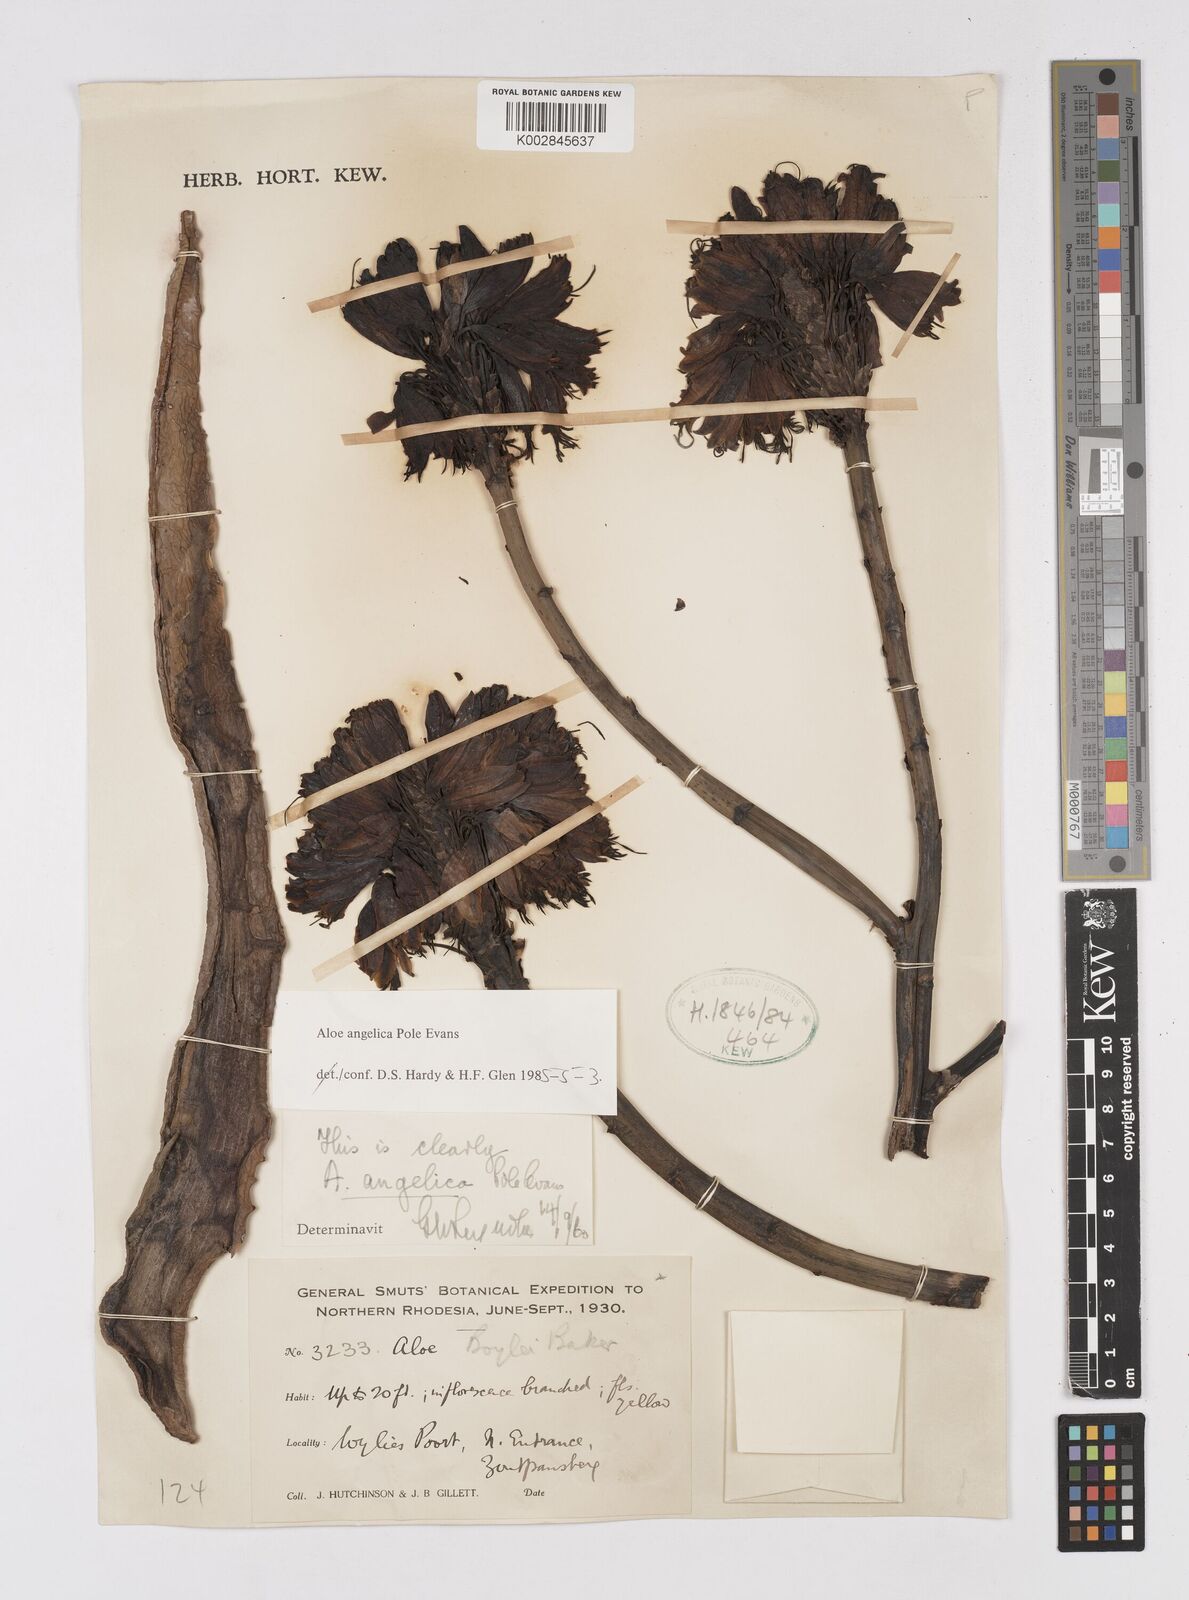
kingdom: Plantae
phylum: Tracheophyta
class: Liliopsida
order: Asparagales
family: Asphodelaceae
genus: Aloe
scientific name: Aloe angelica
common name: Wylliespoort aloe
